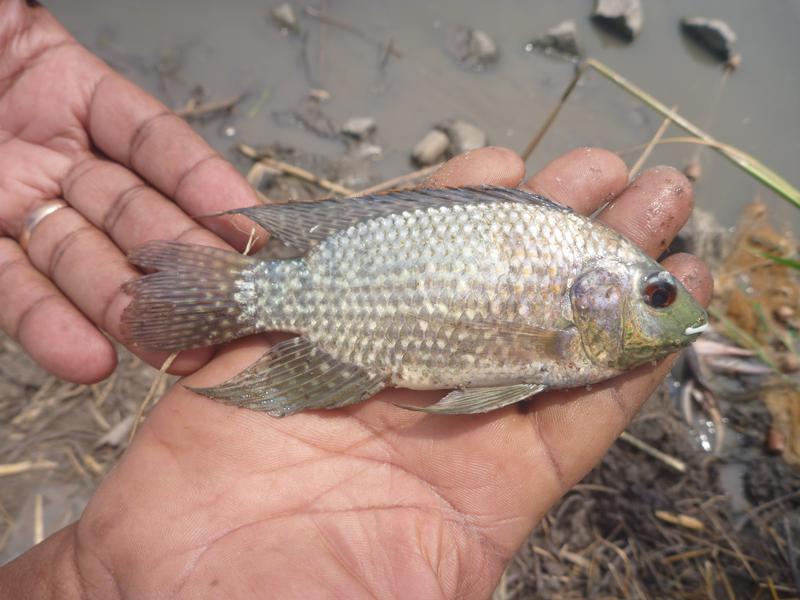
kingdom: Animalia
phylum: Chordata
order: Perciformes
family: Cichlidae
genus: Oreochromis
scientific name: Oreochromis leucostictus
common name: Blue spotted tilapia
